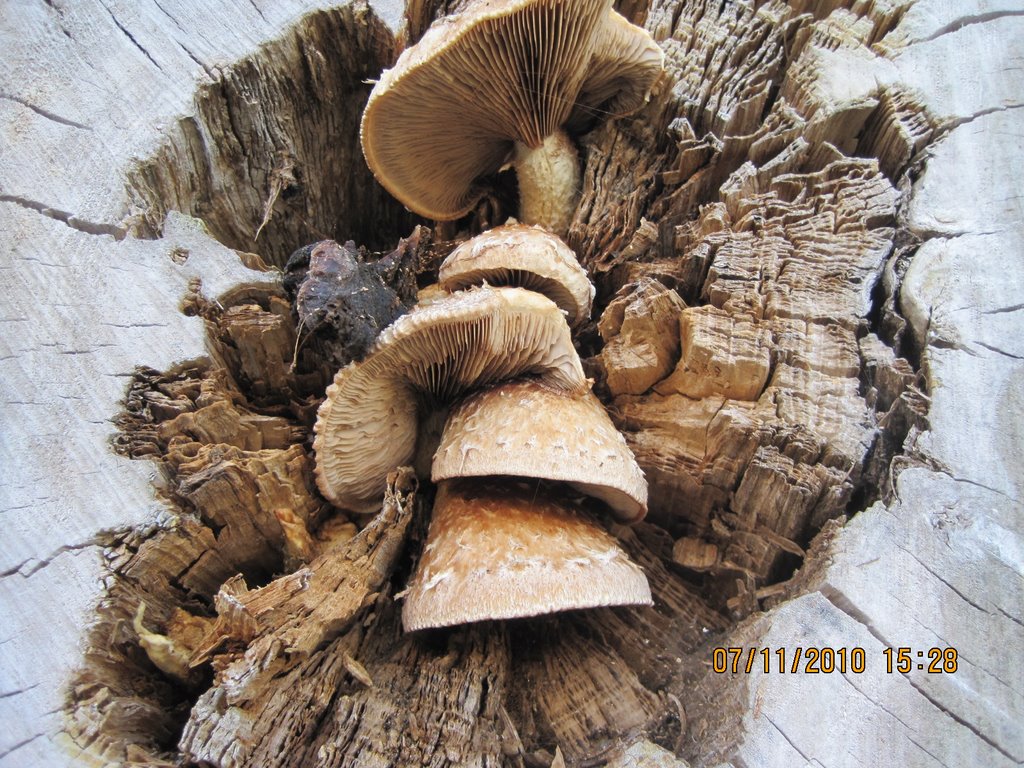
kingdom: Fungi
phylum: Basidiomycota
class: Agaricomycetes
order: Agaricales
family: Strophariaceae
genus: Pholiota
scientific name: Pholiota populnea
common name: poppel-kæmpeskælhat
